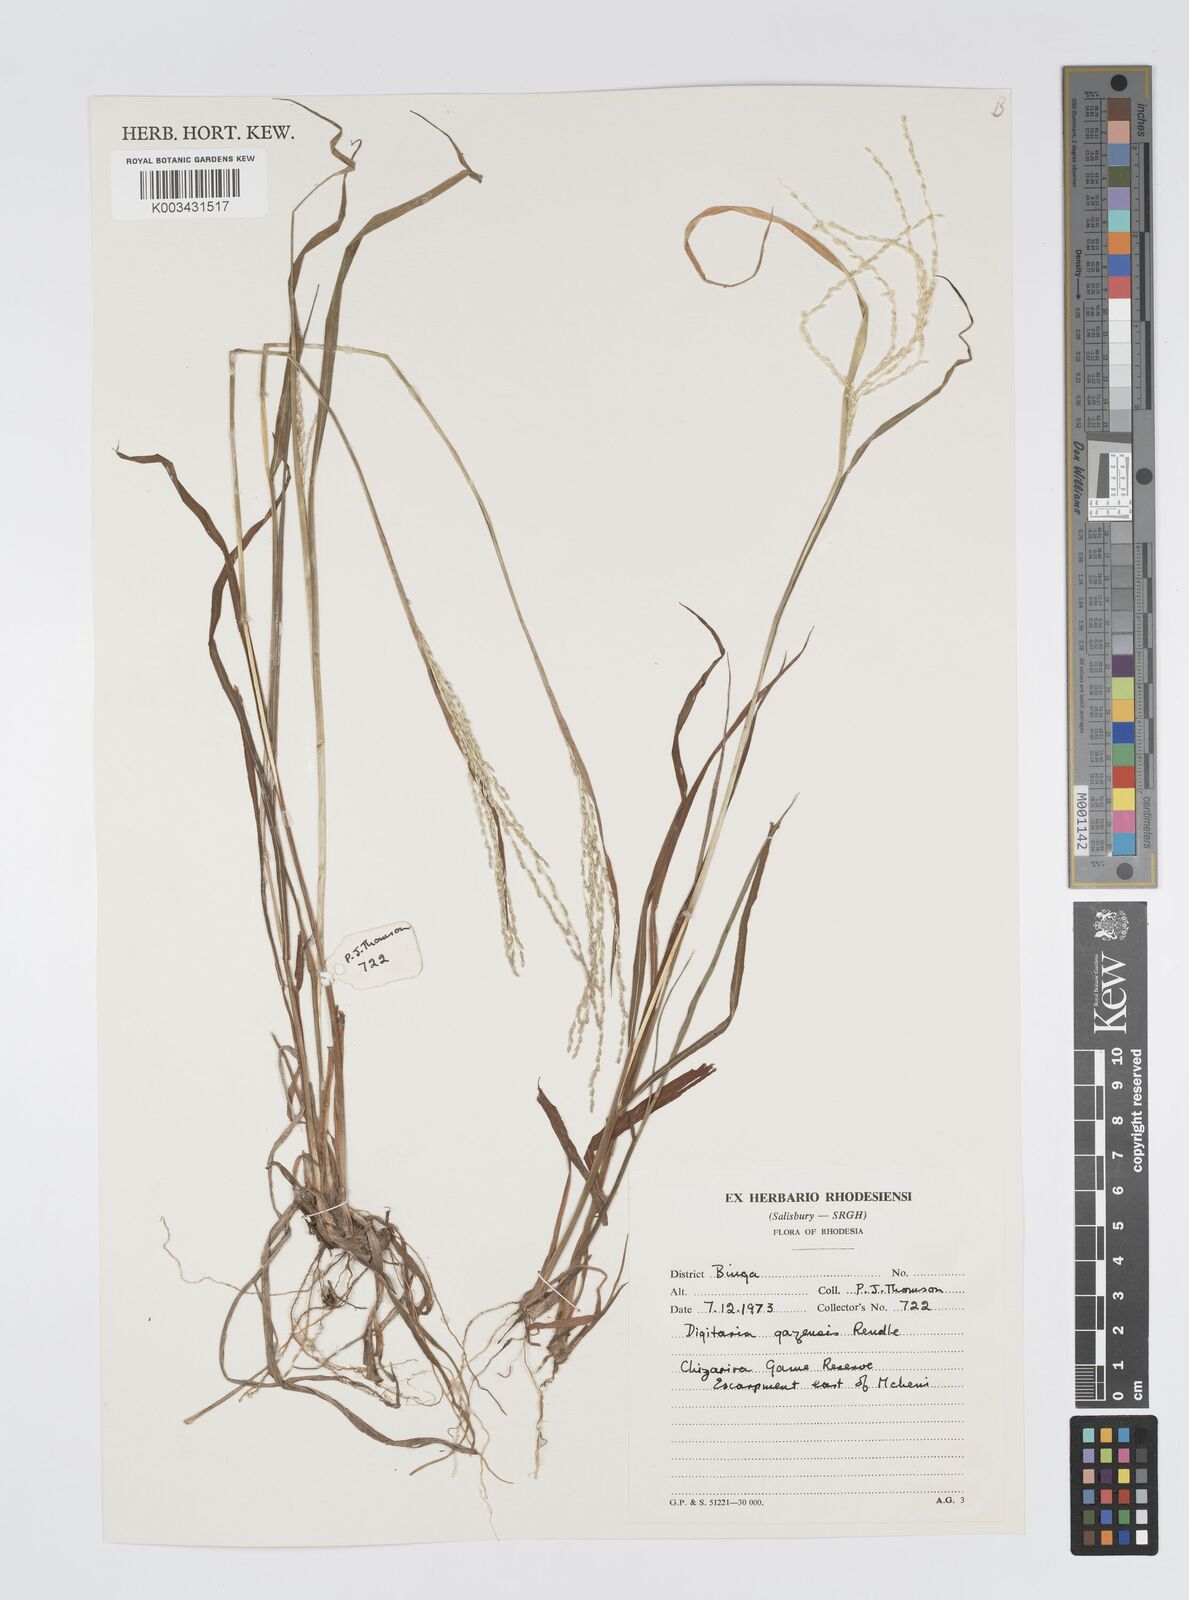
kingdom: Plantae
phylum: Tracheophyta
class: Liliopsida
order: Poales
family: Poaceae
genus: Digitaria
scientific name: Digitaria gazensis
